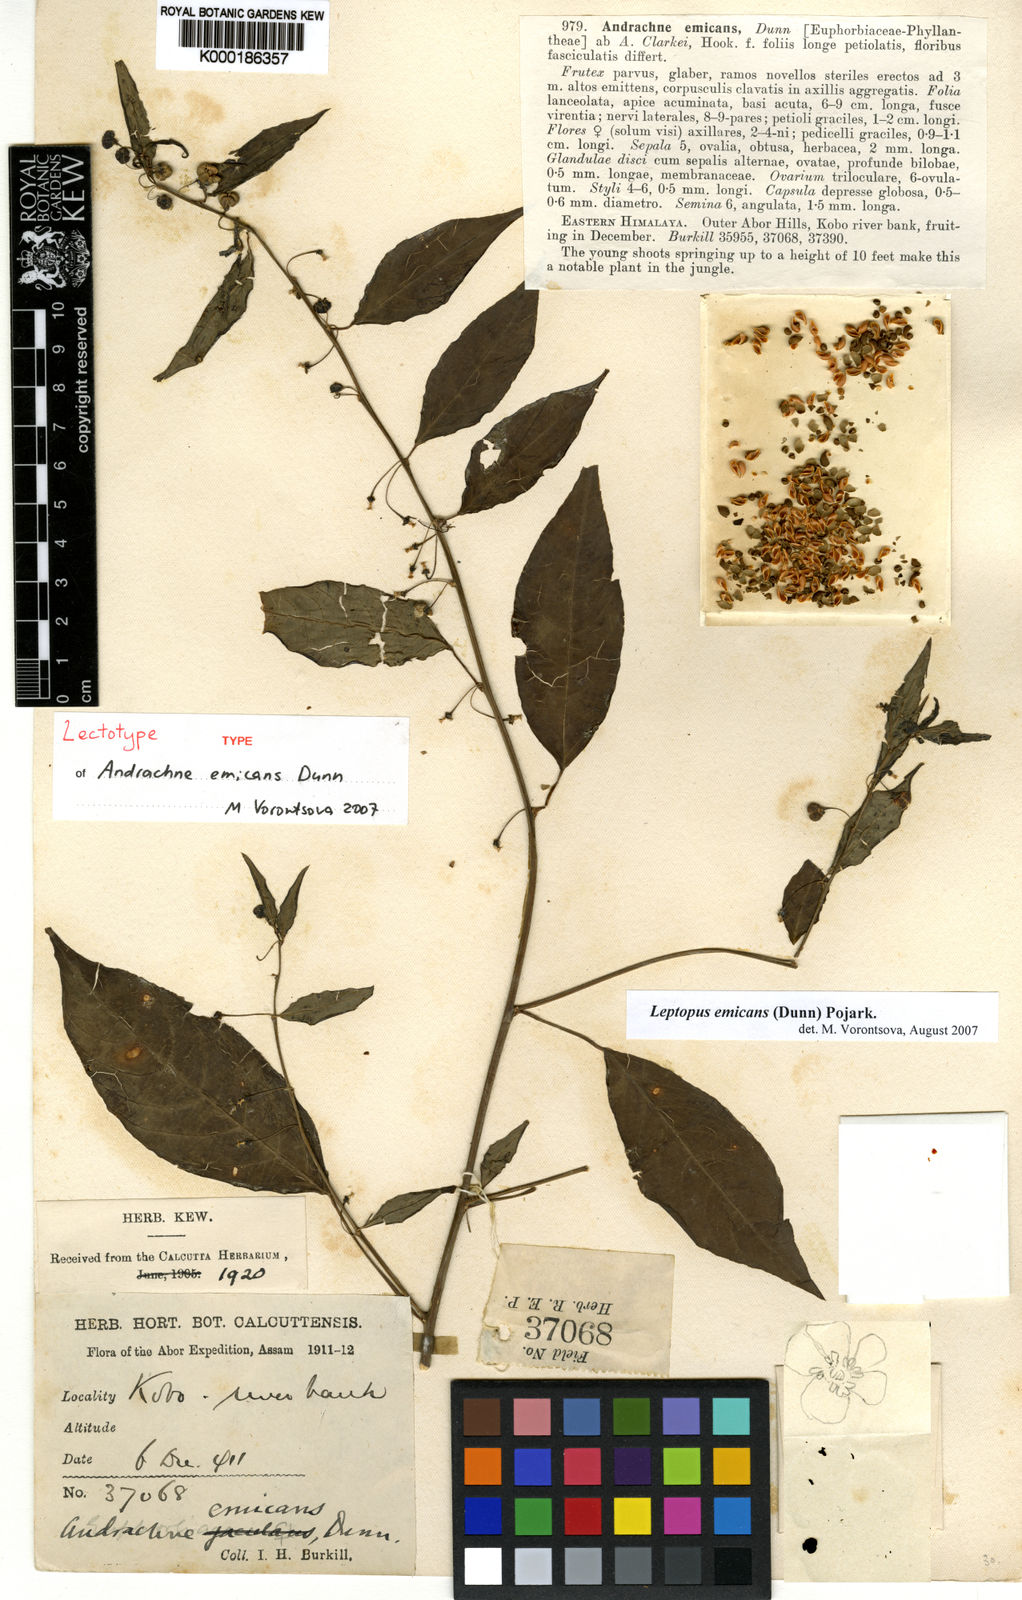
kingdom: Plantae
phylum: Tracheophyta
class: Magnoliopsida
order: Malpighiales
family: Phyllanthaceae
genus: Leptopus
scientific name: Leptopus emicans
